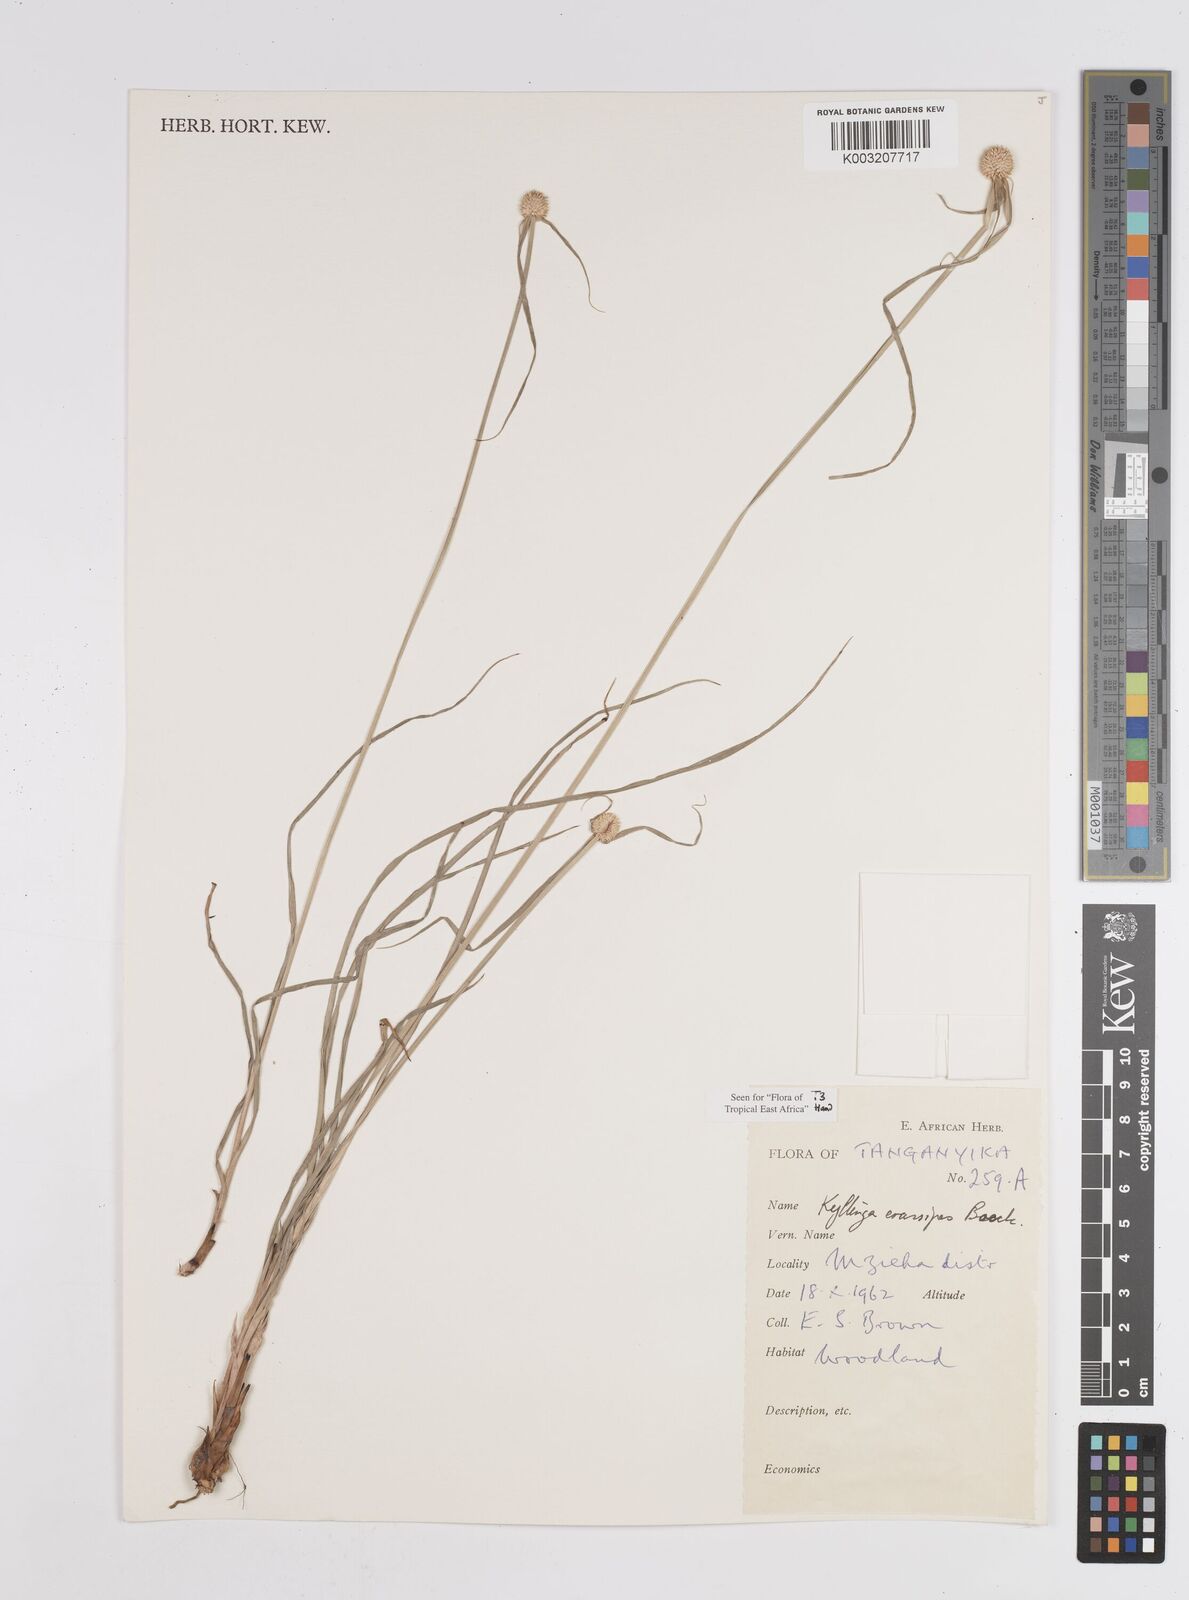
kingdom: Plantae
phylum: Tracheophyta
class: Liliopsida
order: Poales
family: Cyperaceae
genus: Cyperus
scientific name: Cyperus
